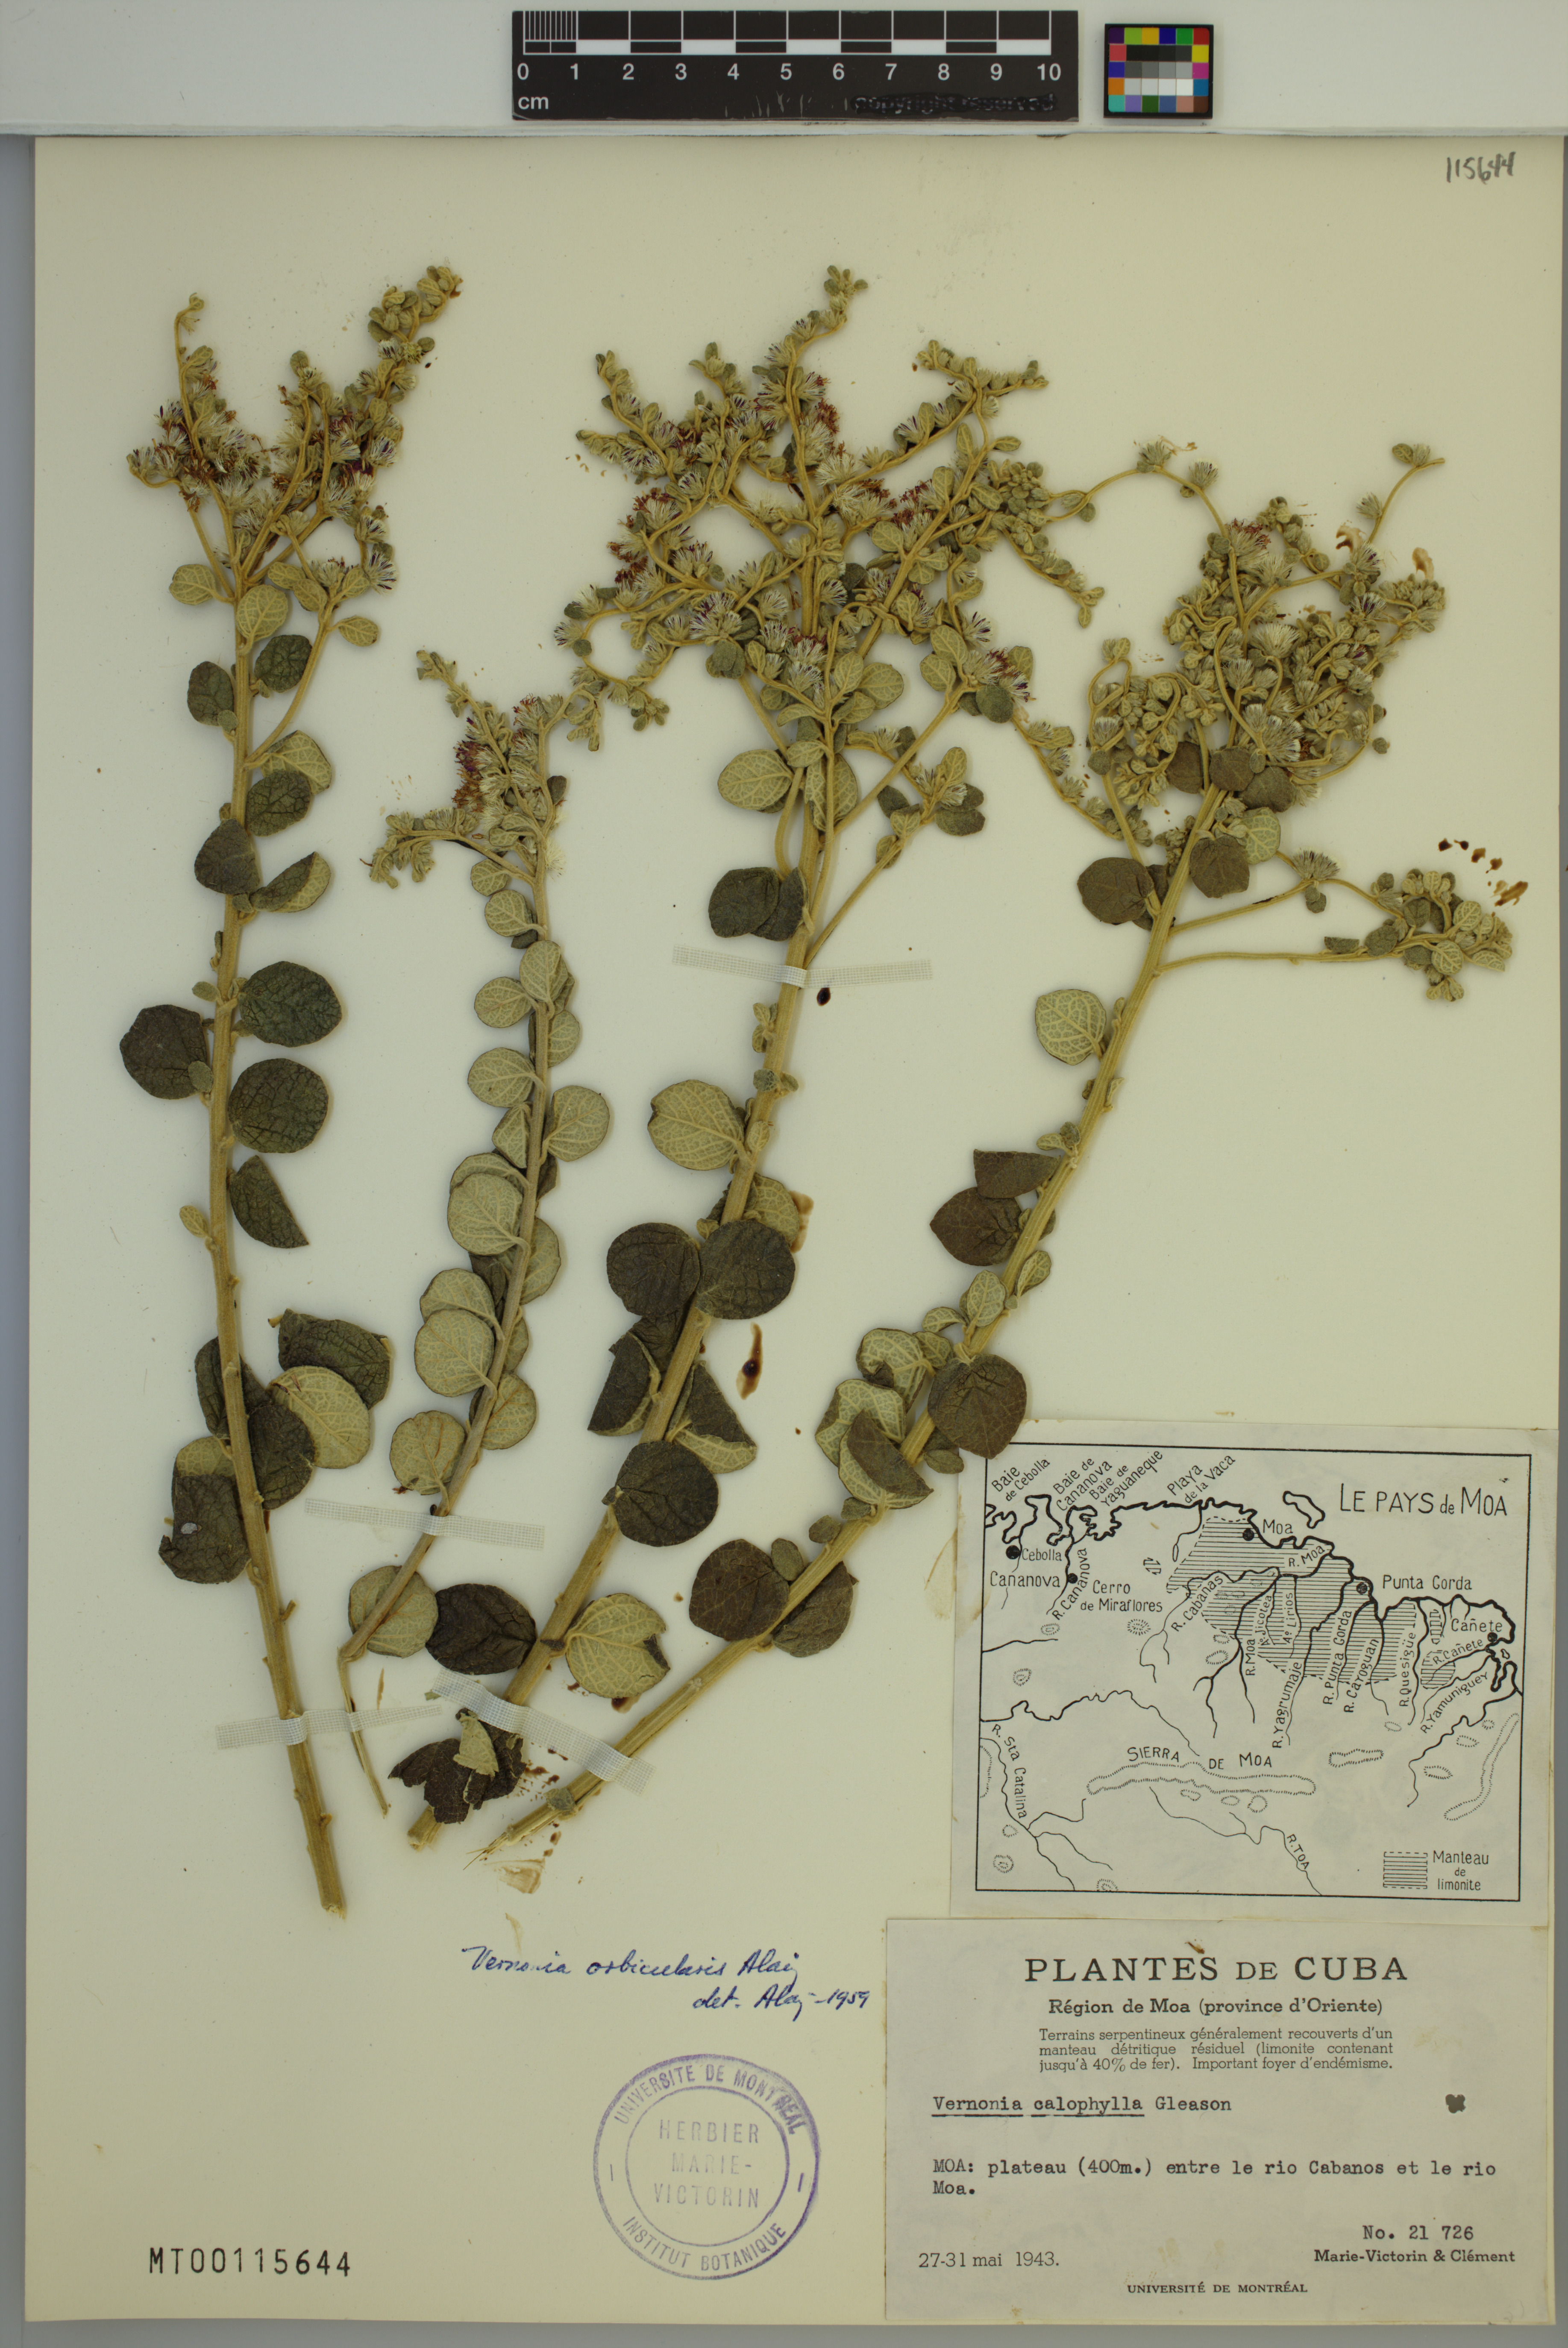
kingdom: Plantae
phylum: Tracheophyta
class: Magnoliopsida
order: Asterales
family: Asteraceae
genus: Lepidaploa
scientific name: Lepidaploa orbicularis
